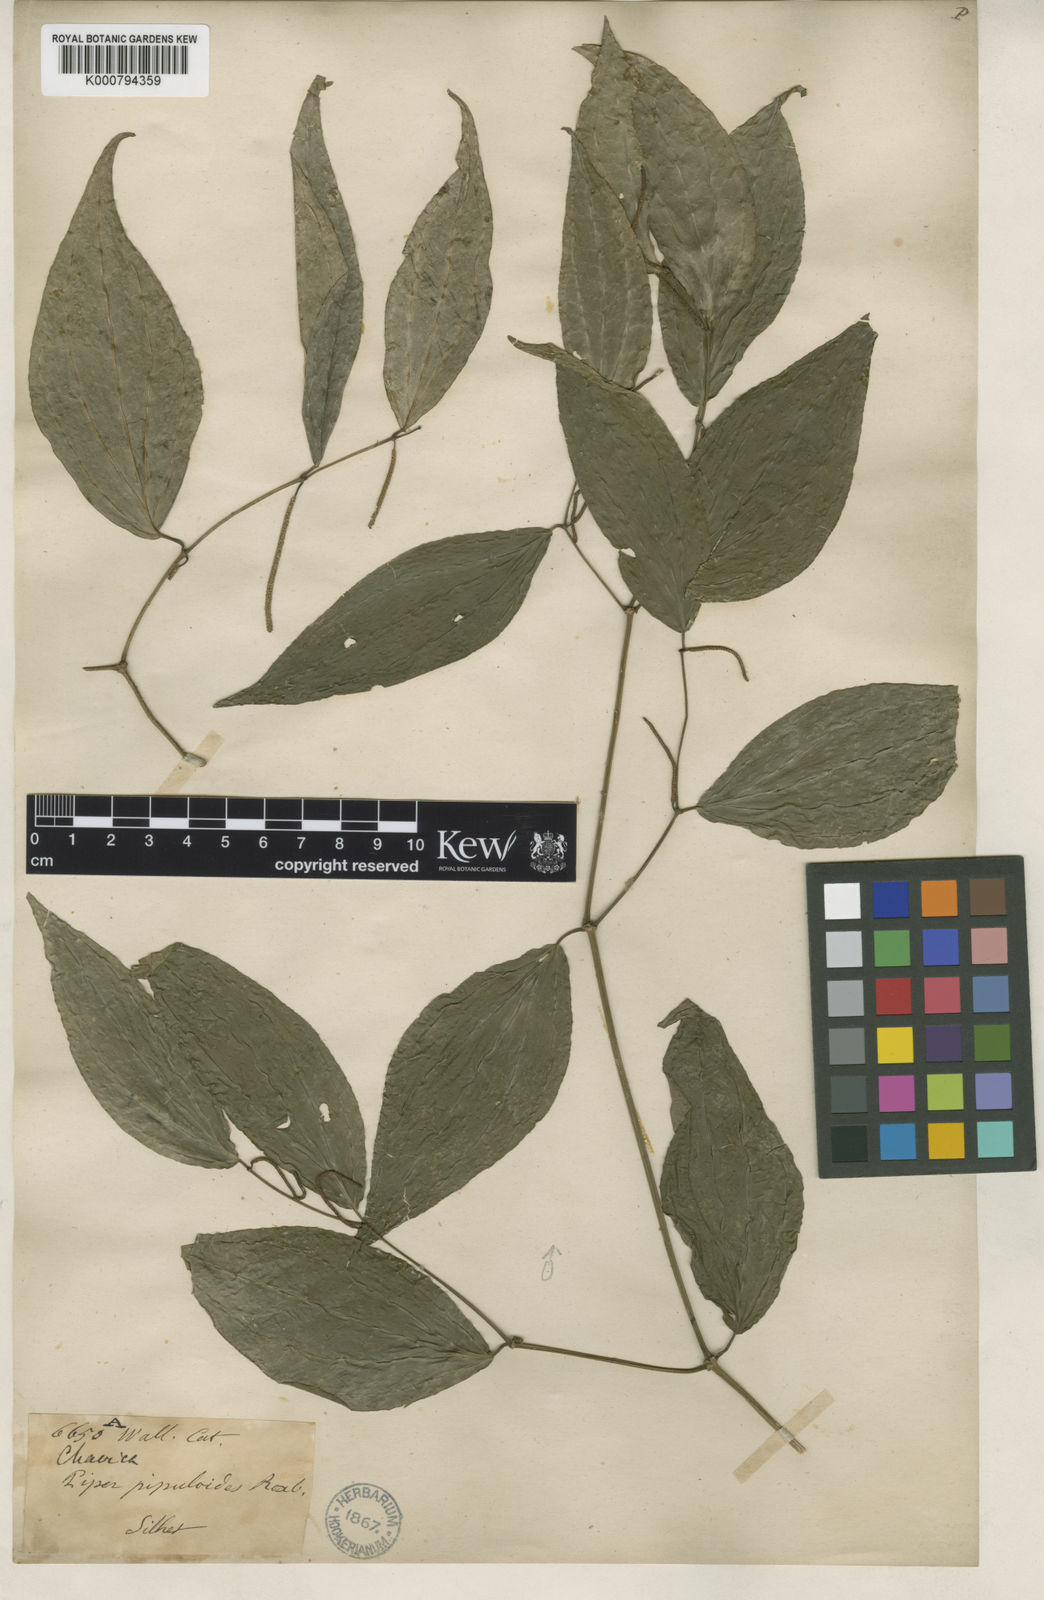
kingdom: Plantae
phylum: Tracheophyta
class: Magnoliopsida
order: Piperales
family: Piperaceae
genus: Piper
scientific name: Piper peepuloides
